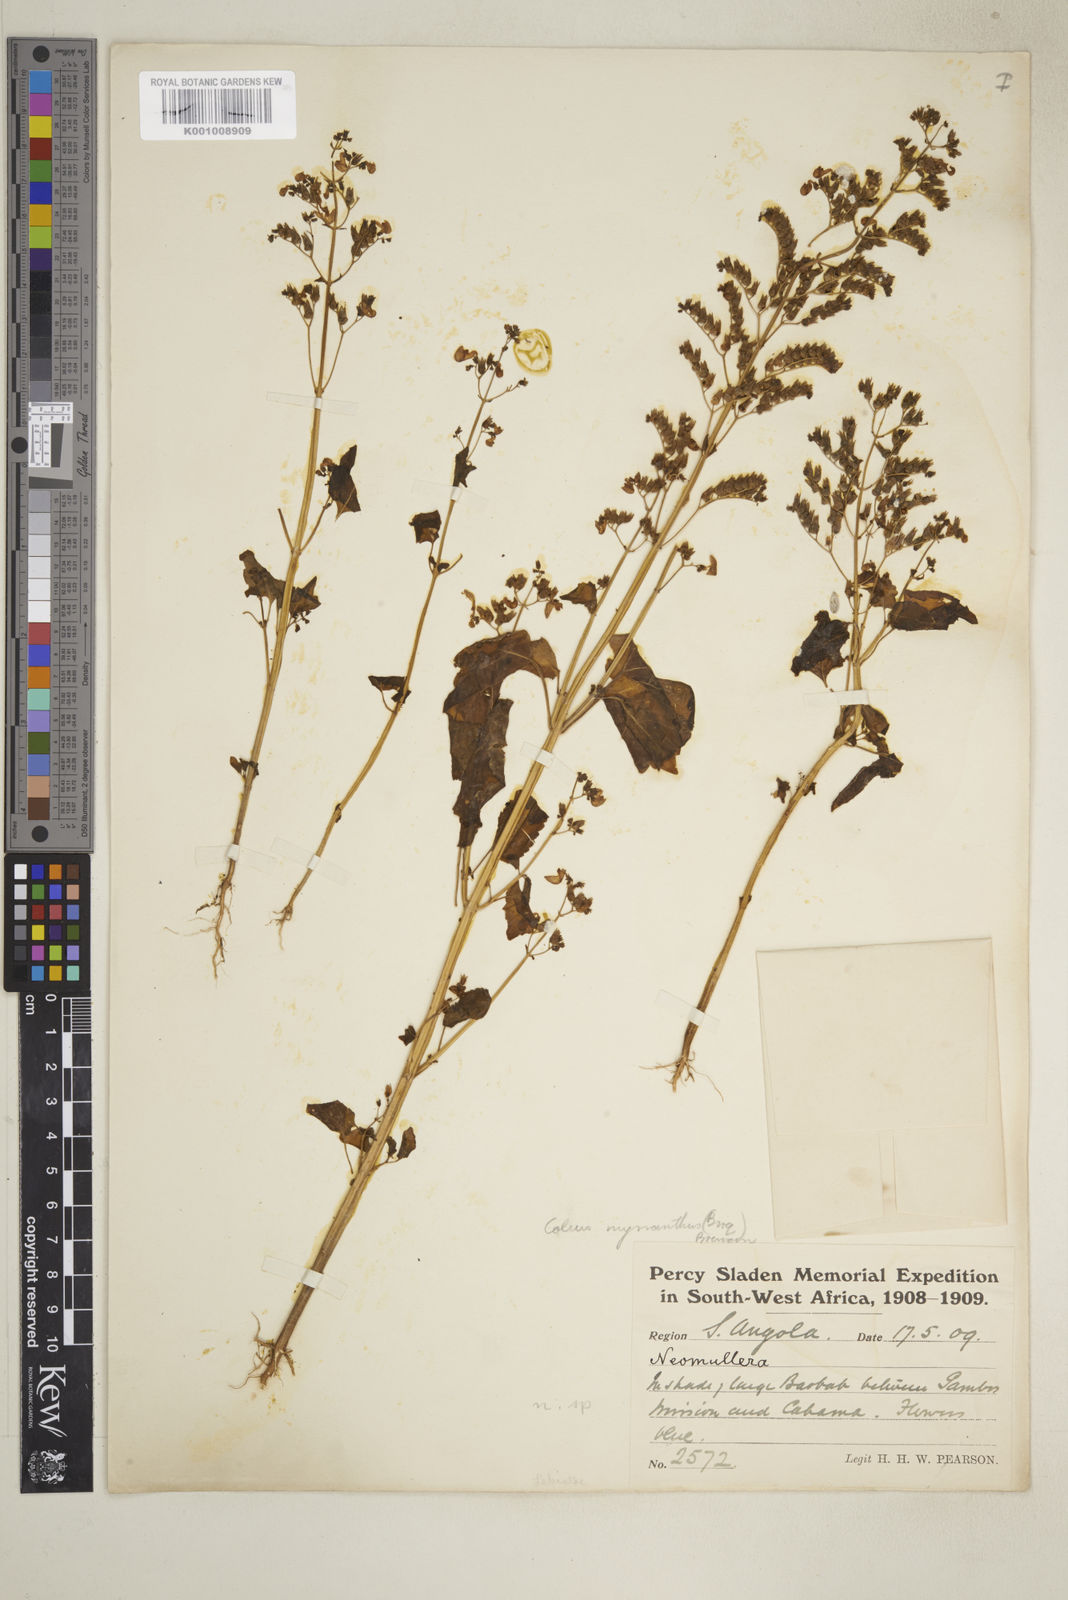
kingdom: Plantae
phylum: Tracheophyta
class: Magnoliopsida
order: Lamiales
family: Lamiaceae
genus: Coleus
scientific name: Coleus hereroensis
